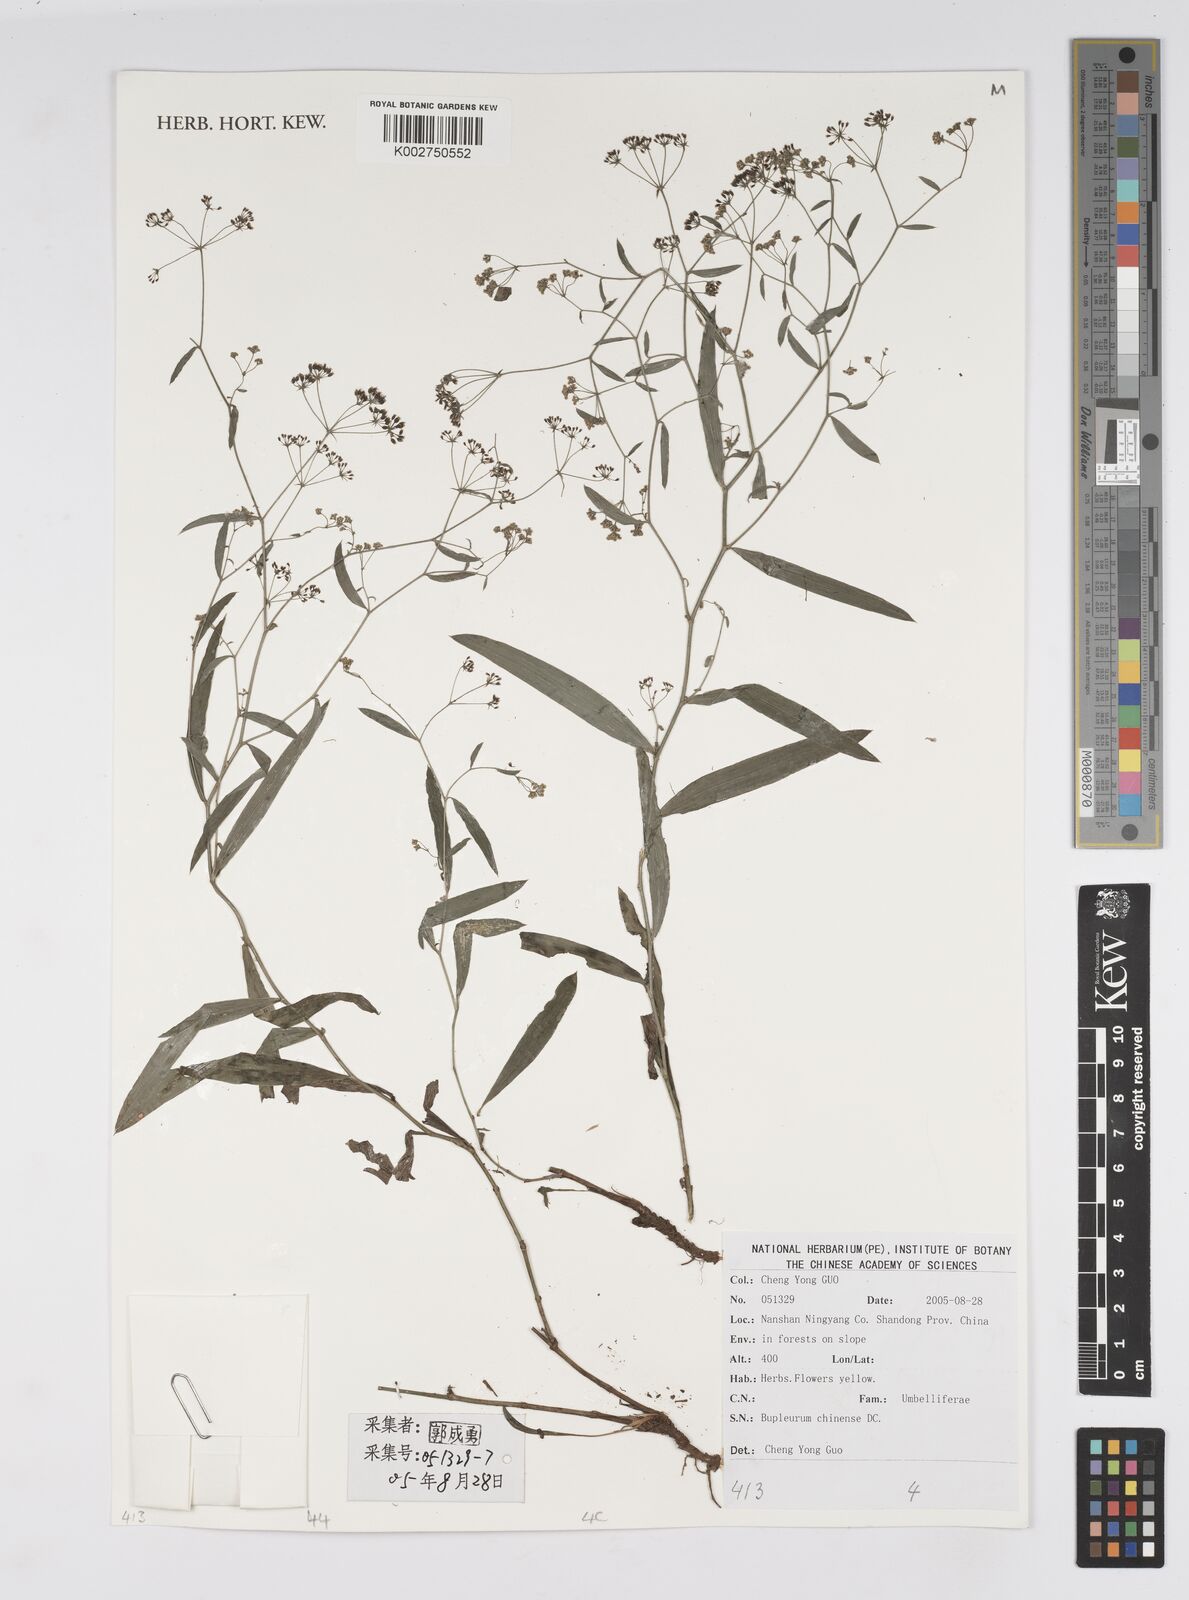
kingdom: Plantae
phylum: Tracheophyta
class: Magnoliopsida
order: Apiales
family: Apiaceae
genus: Bupleurum
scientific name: Bupleurum chinense
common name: Bupleurum
